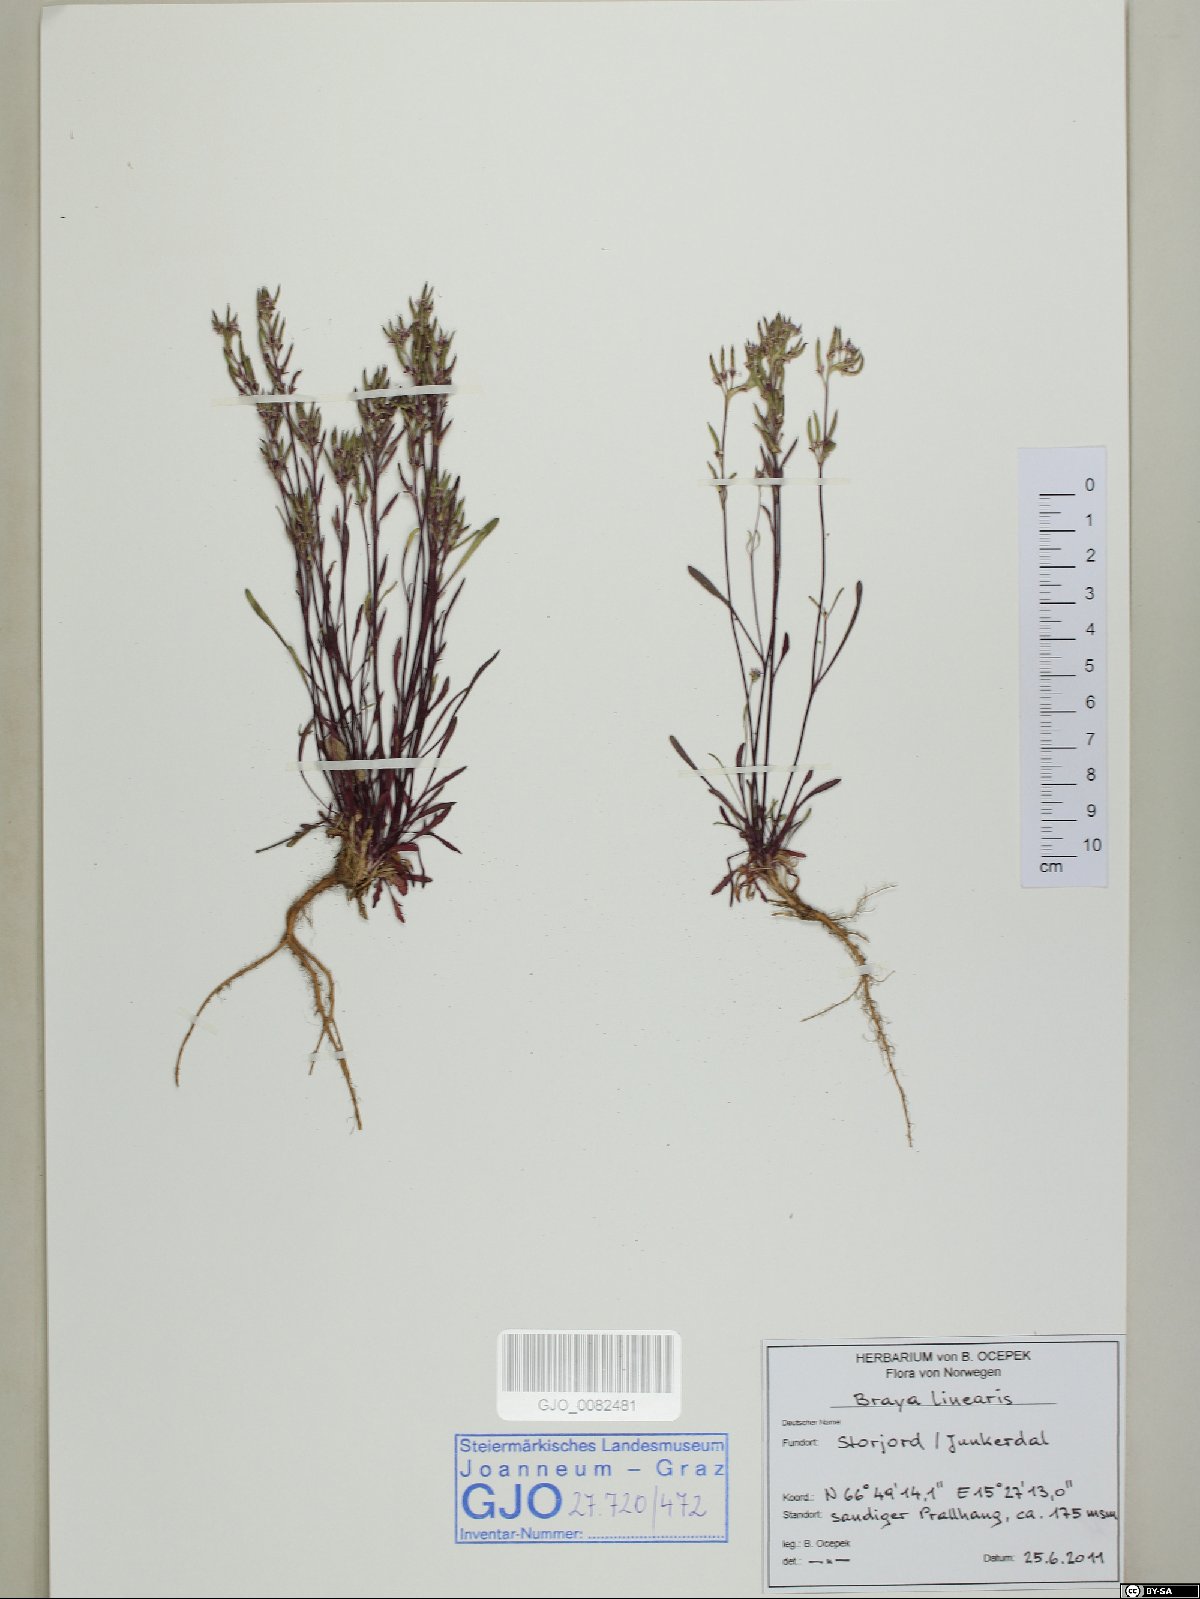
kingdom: Plantae
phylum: Tracheophyta
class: Magnoliopsida
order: Brassicales
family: Brassicaceae
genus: Braya
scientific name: Braya linearis
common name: Narrow-fruit braya
